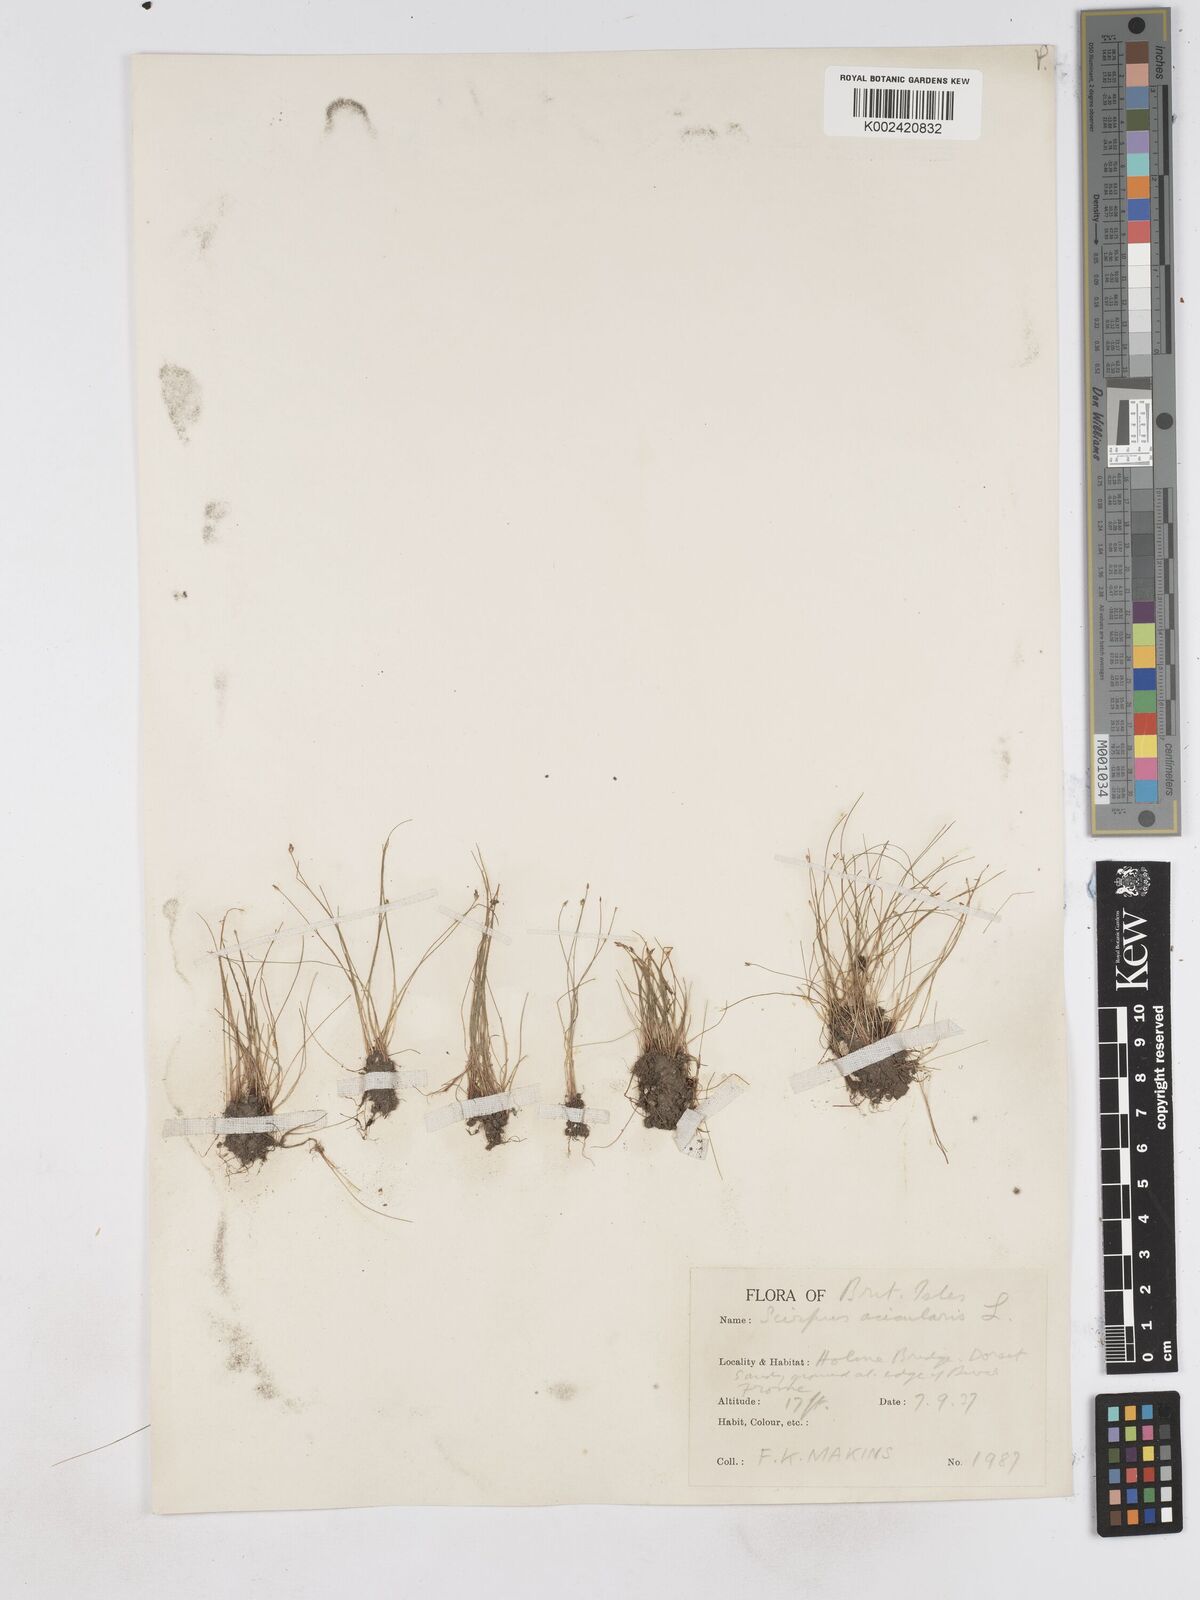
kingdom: Plantae
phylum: Tracheophyta
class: Liliopsida
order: Poales
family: Cyperaceae
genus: Eleocharis
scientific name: Eleocharis acicularis
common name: Needle spike-rush
